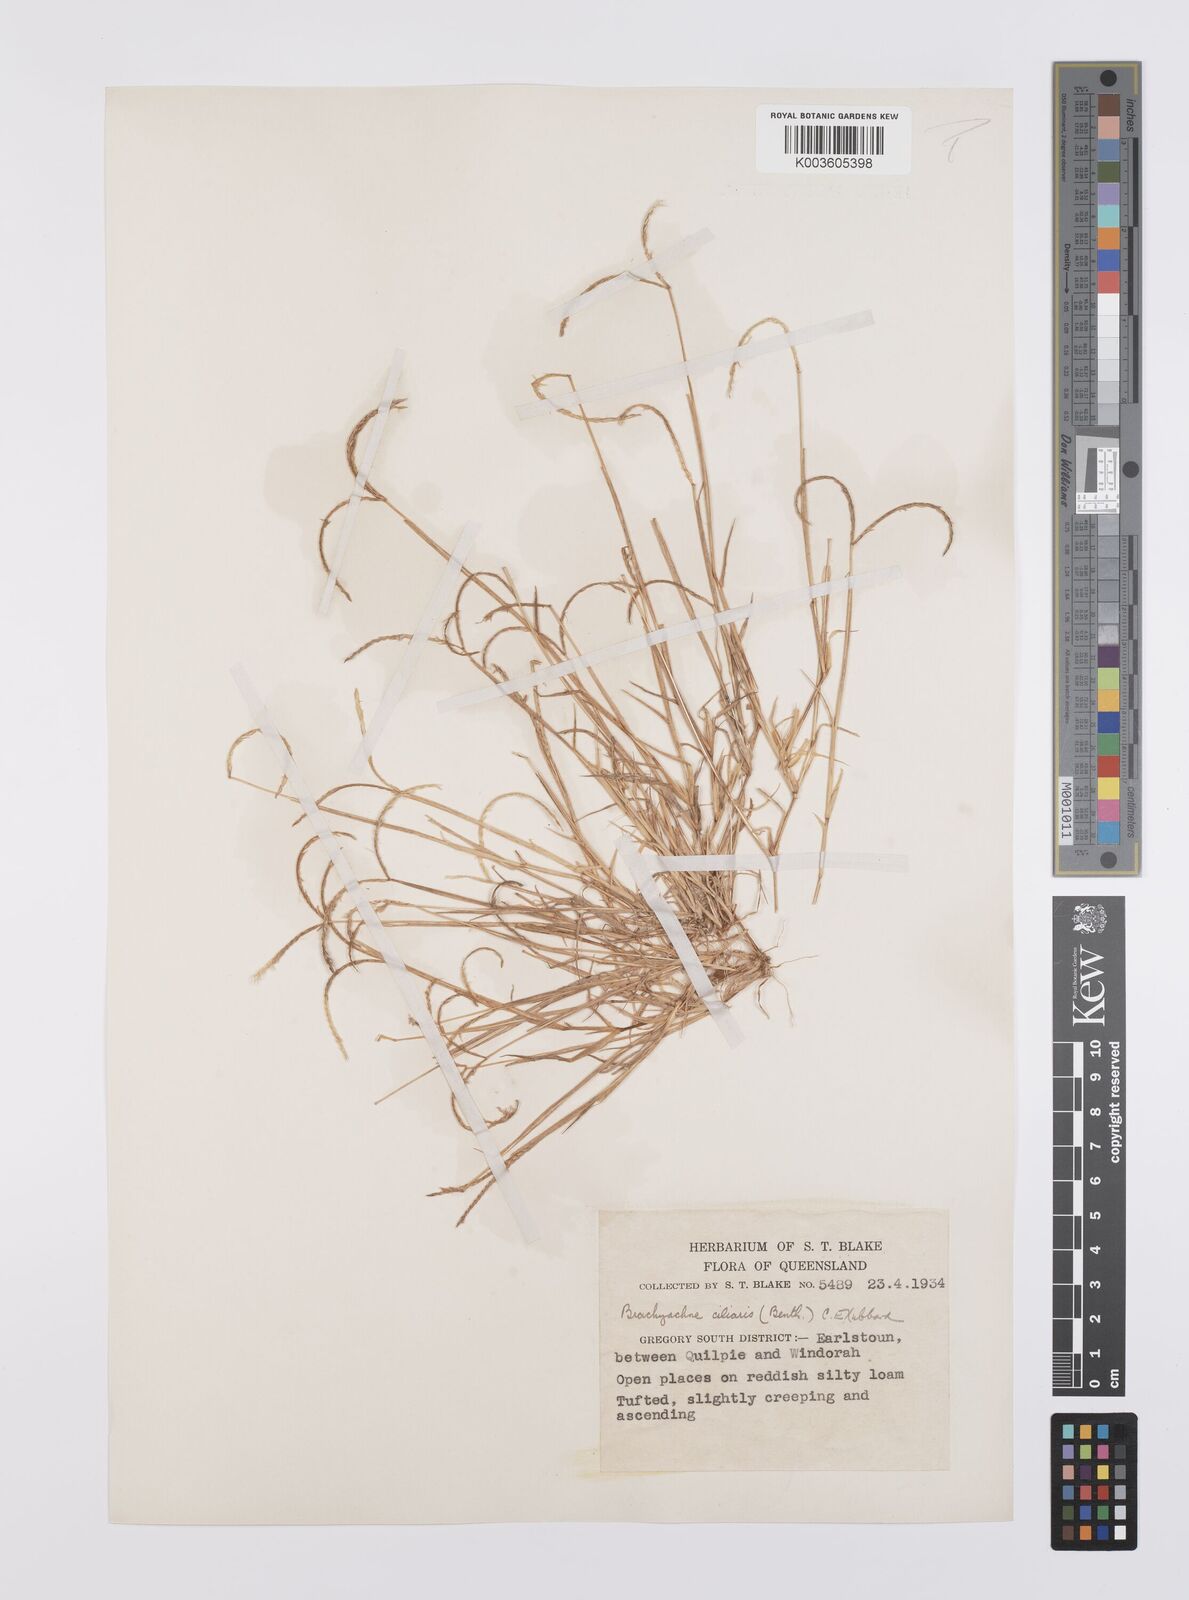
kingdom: Plantae
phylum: Tracheophyta
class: Liliopsida
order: Poales
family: Poaceae
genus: Cynodon
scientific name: Cynodon simonii
